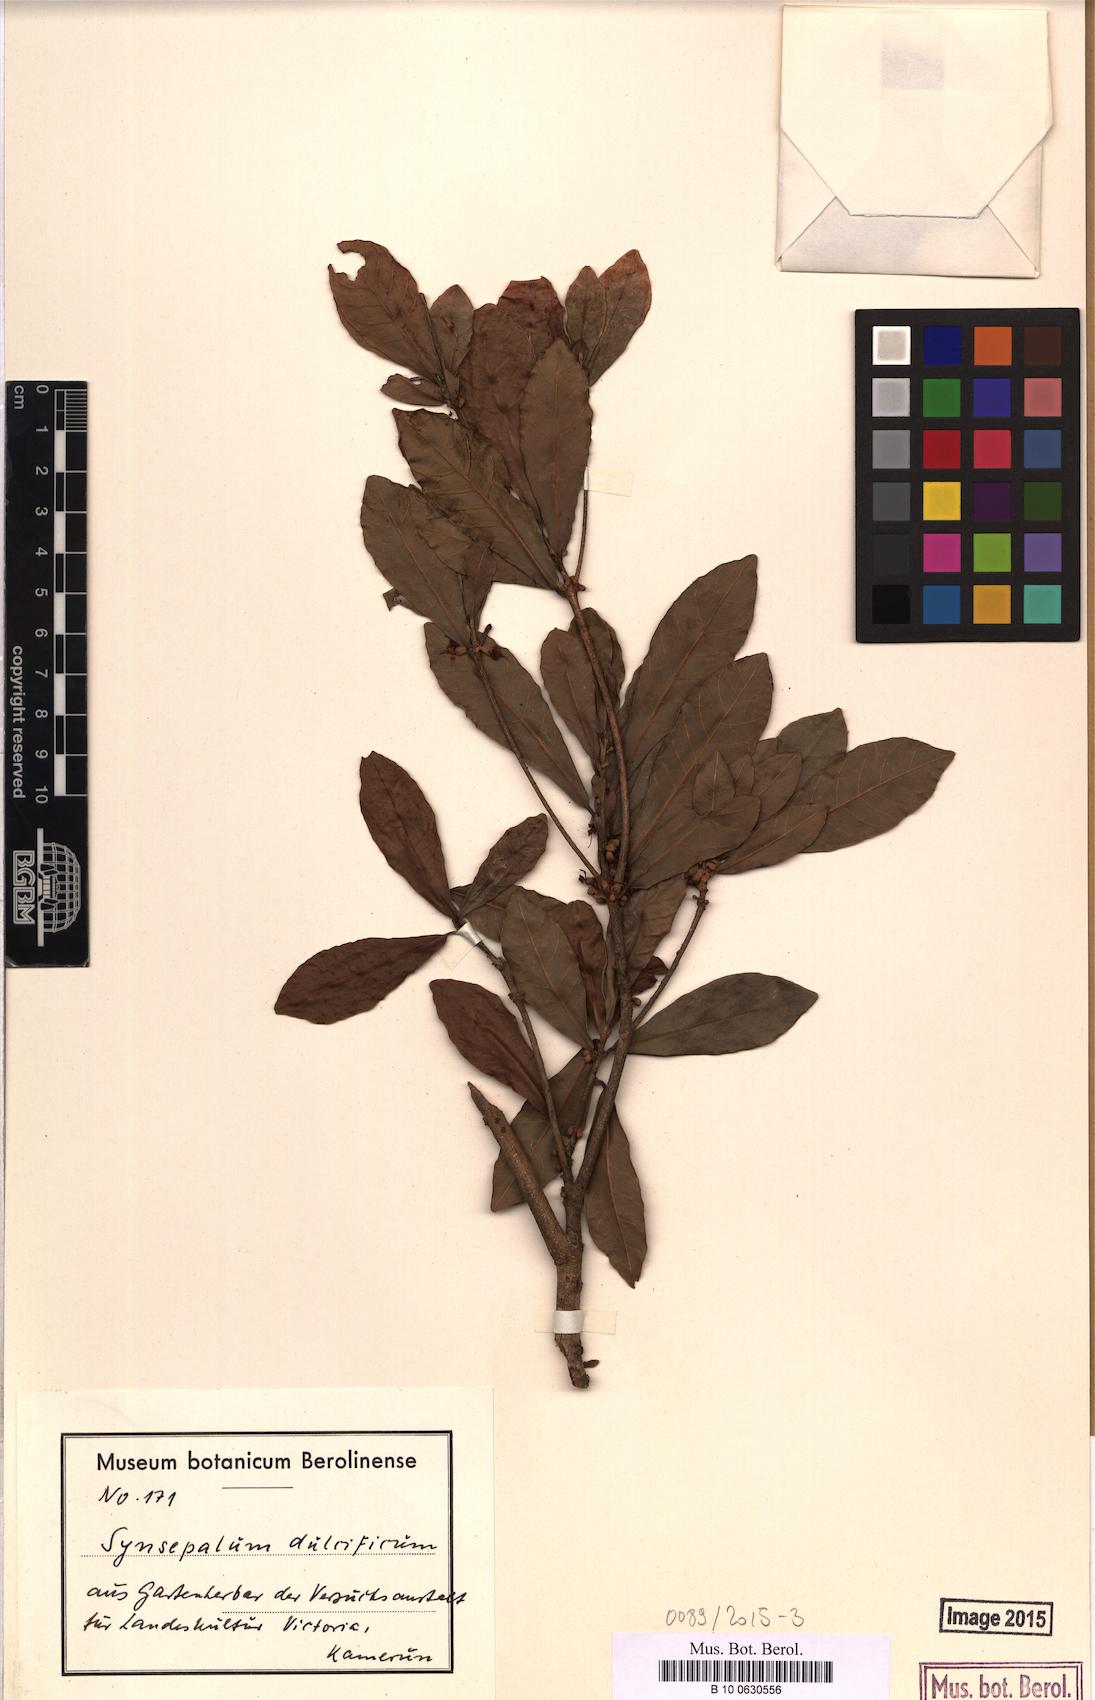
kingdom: Plantae
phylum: Tracheophyta
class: Magnoliopsida
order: Ericales
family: Sapotaceae
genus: Synsepalum
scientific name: Synsepalum dulcificum
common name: Miracle-fruit
